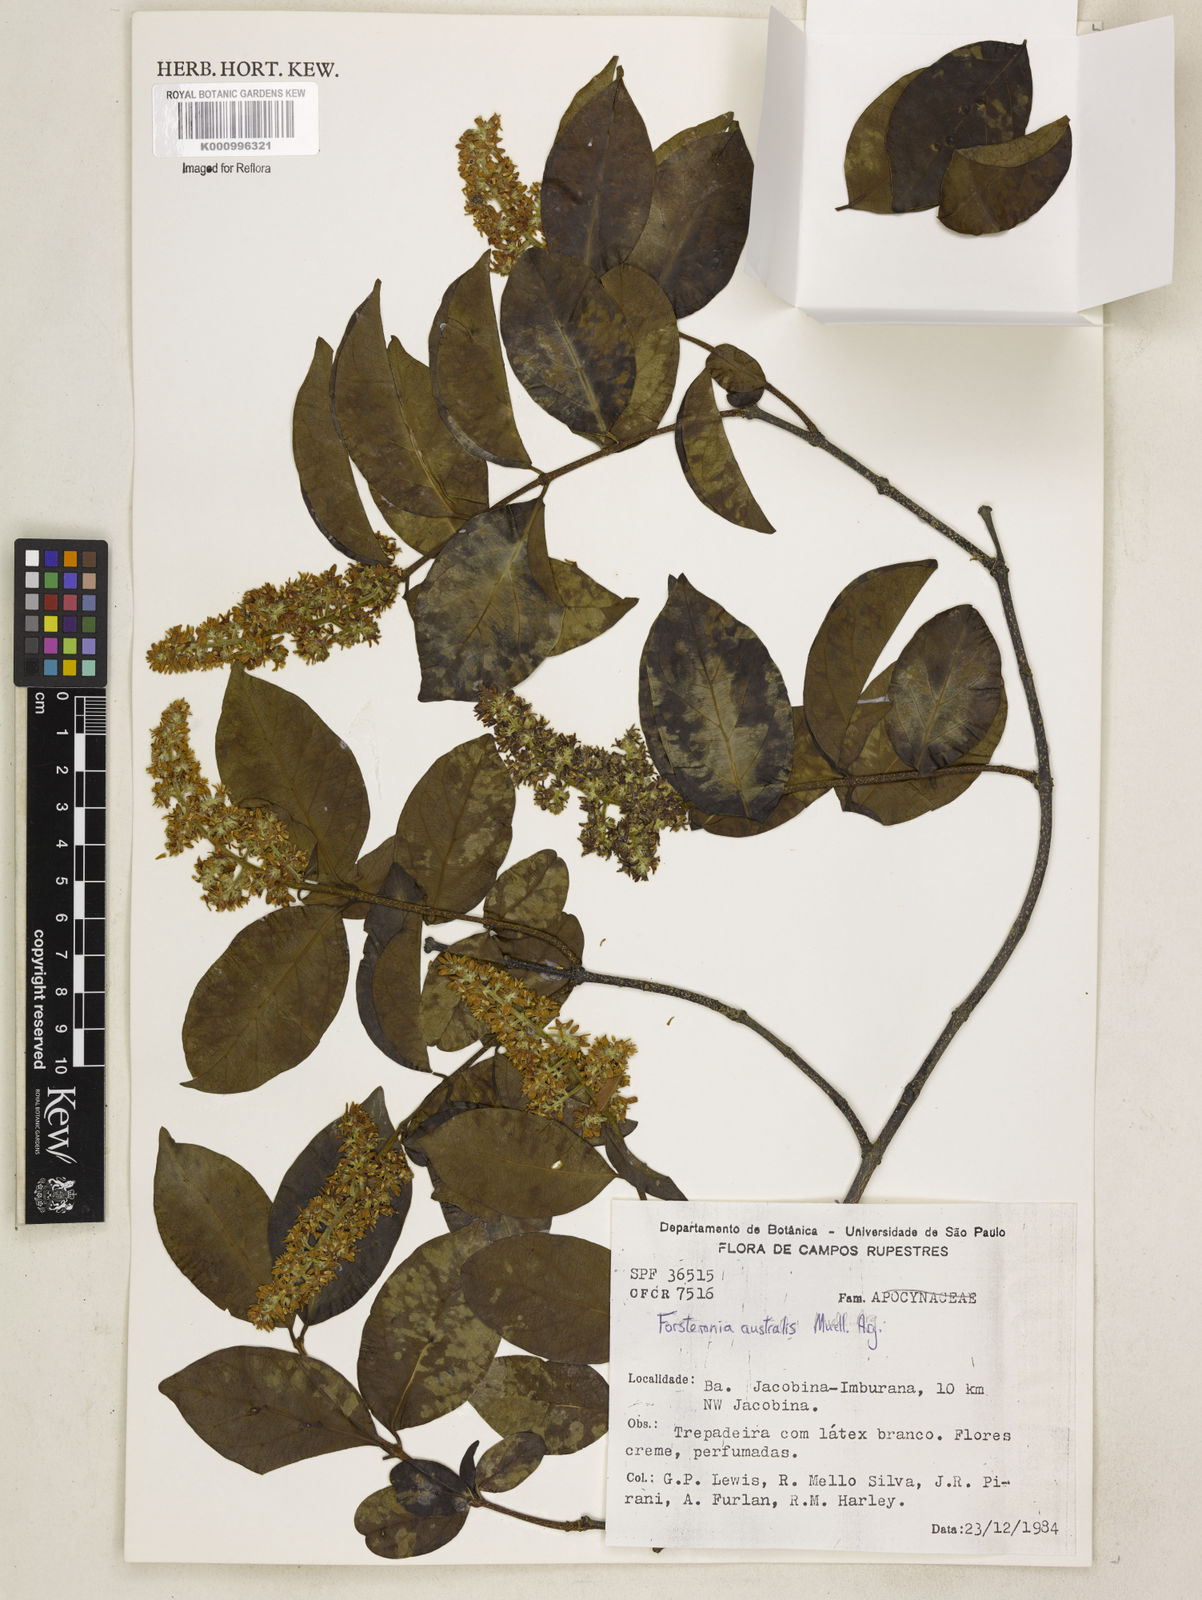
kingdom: Plantae
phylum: Tracheophyta
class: Magnoliopsida
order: Gentianales
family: Apocynaceae
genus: Forsteronia
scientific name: Forsteronia
